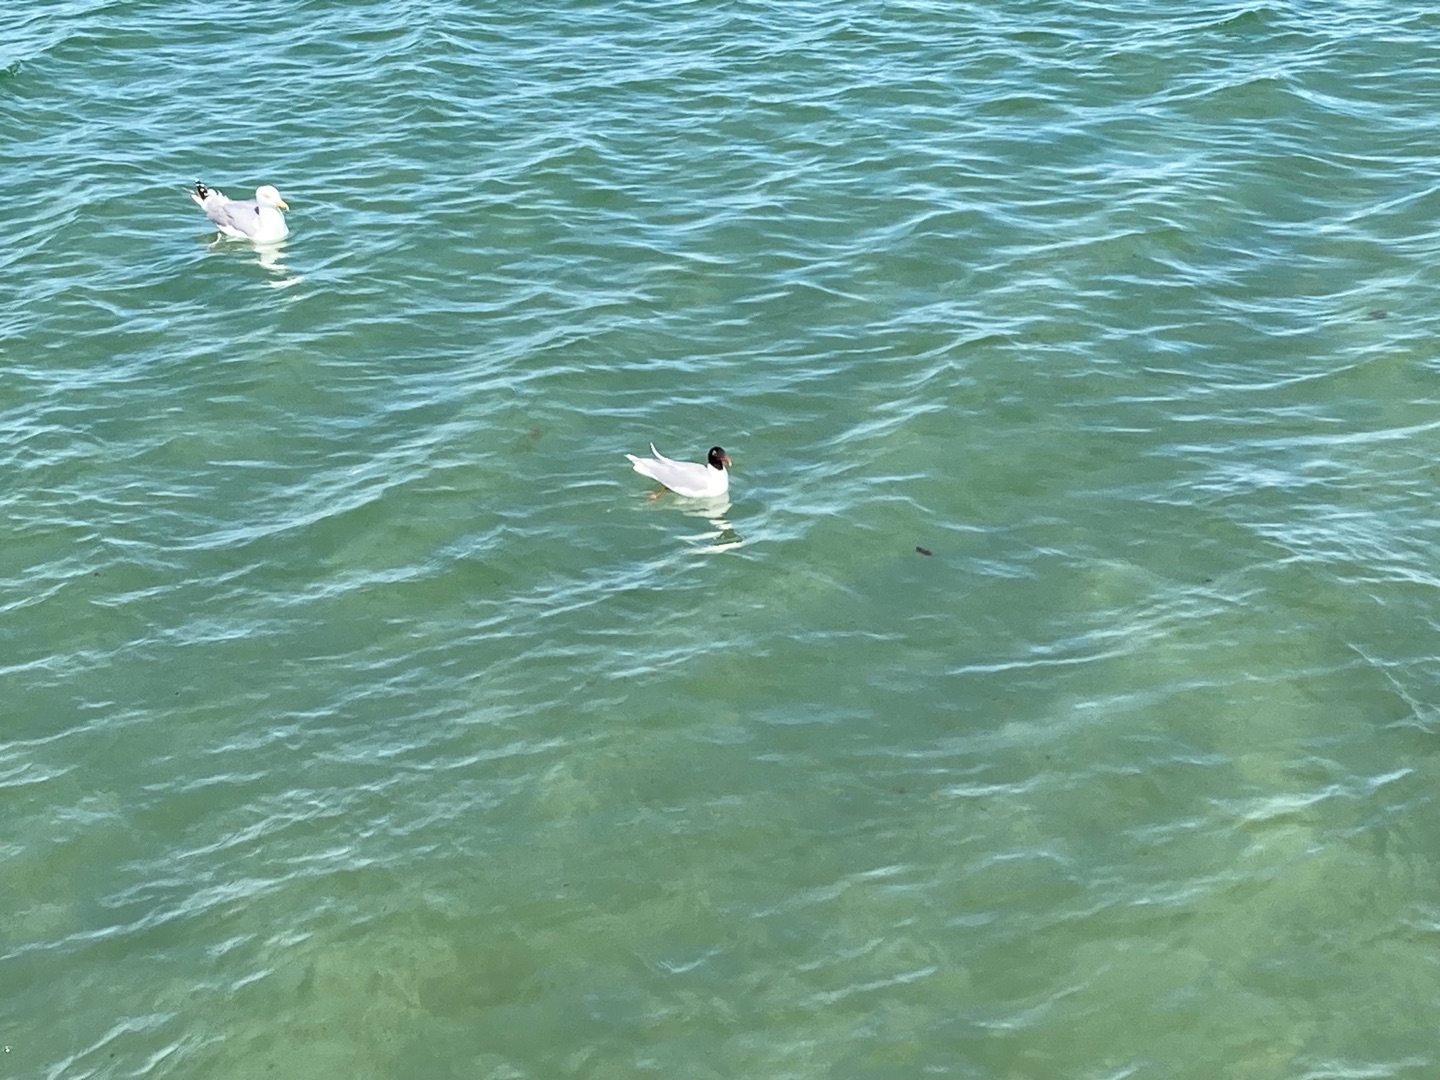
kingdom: Animalia
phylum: Chordata
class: Aves
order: Charadriiformes
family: Laridae
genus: Ichthyaetus
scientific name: Ichthyaetus melanocephalus
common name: Sorthovedet måge
